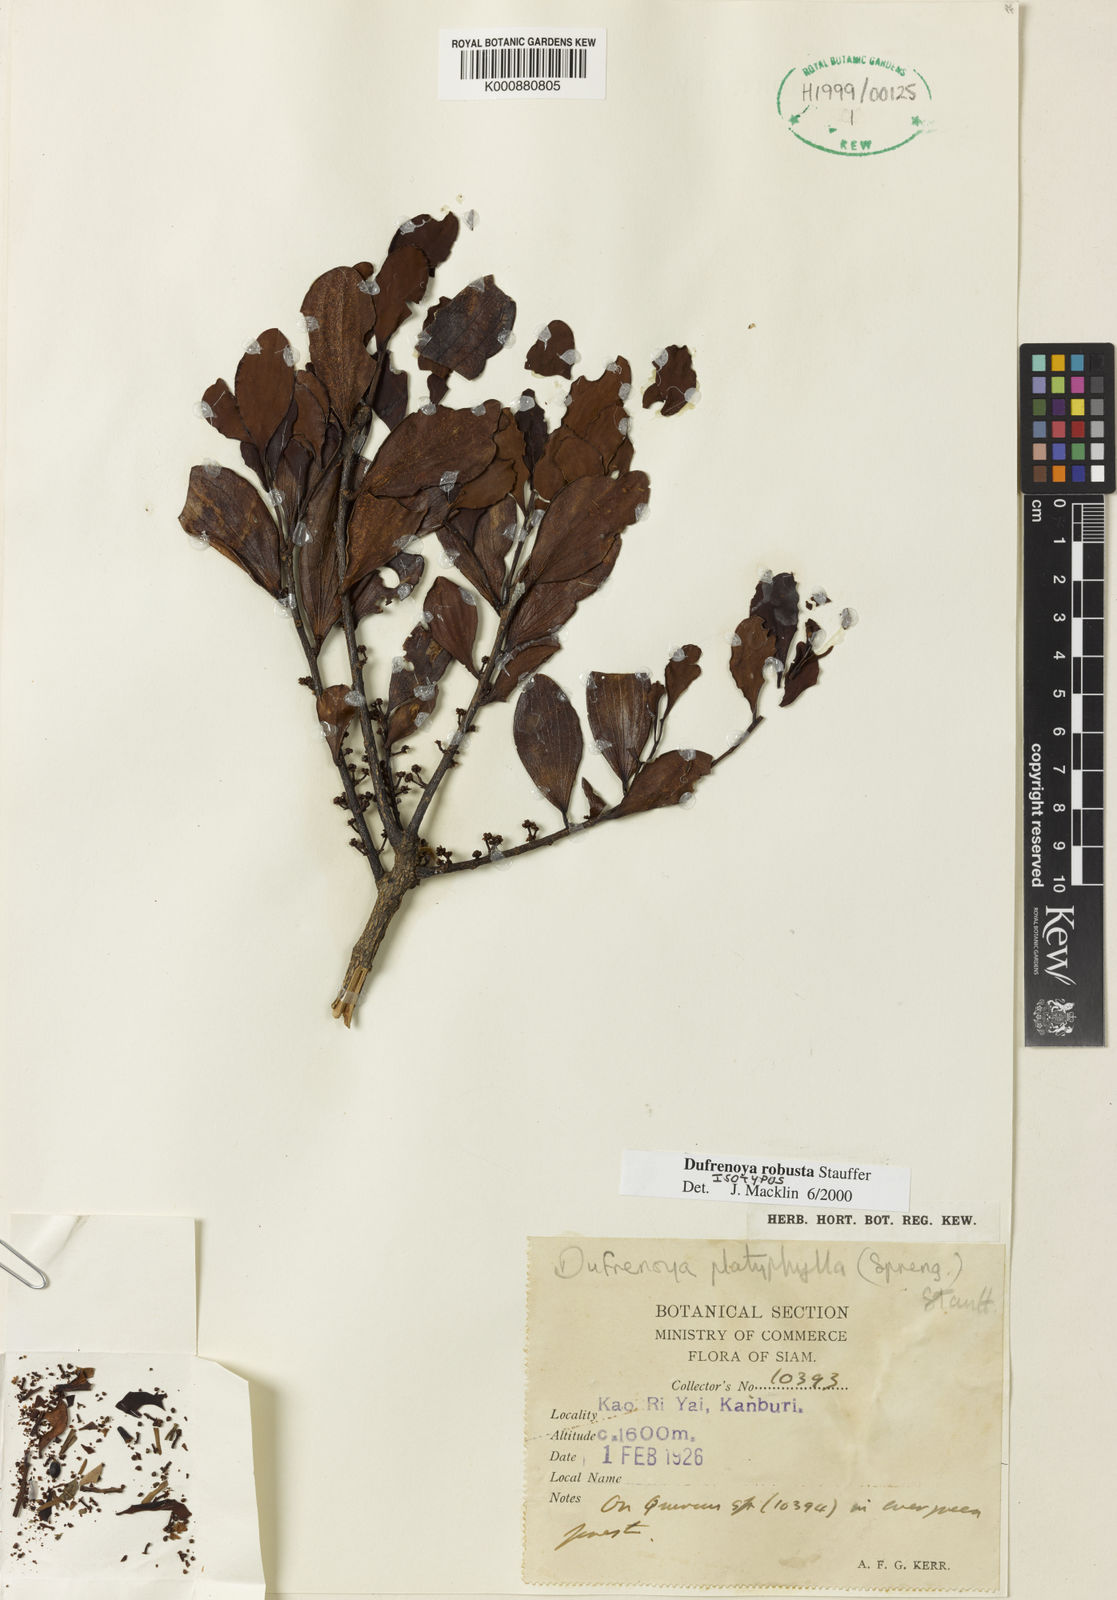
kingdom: Plantae
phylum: Tracheophyta
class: Magnoliopsida
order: Santalales
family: Amphorogynaceae
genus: Dufrenoya
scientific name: Dufrenoya robusta
